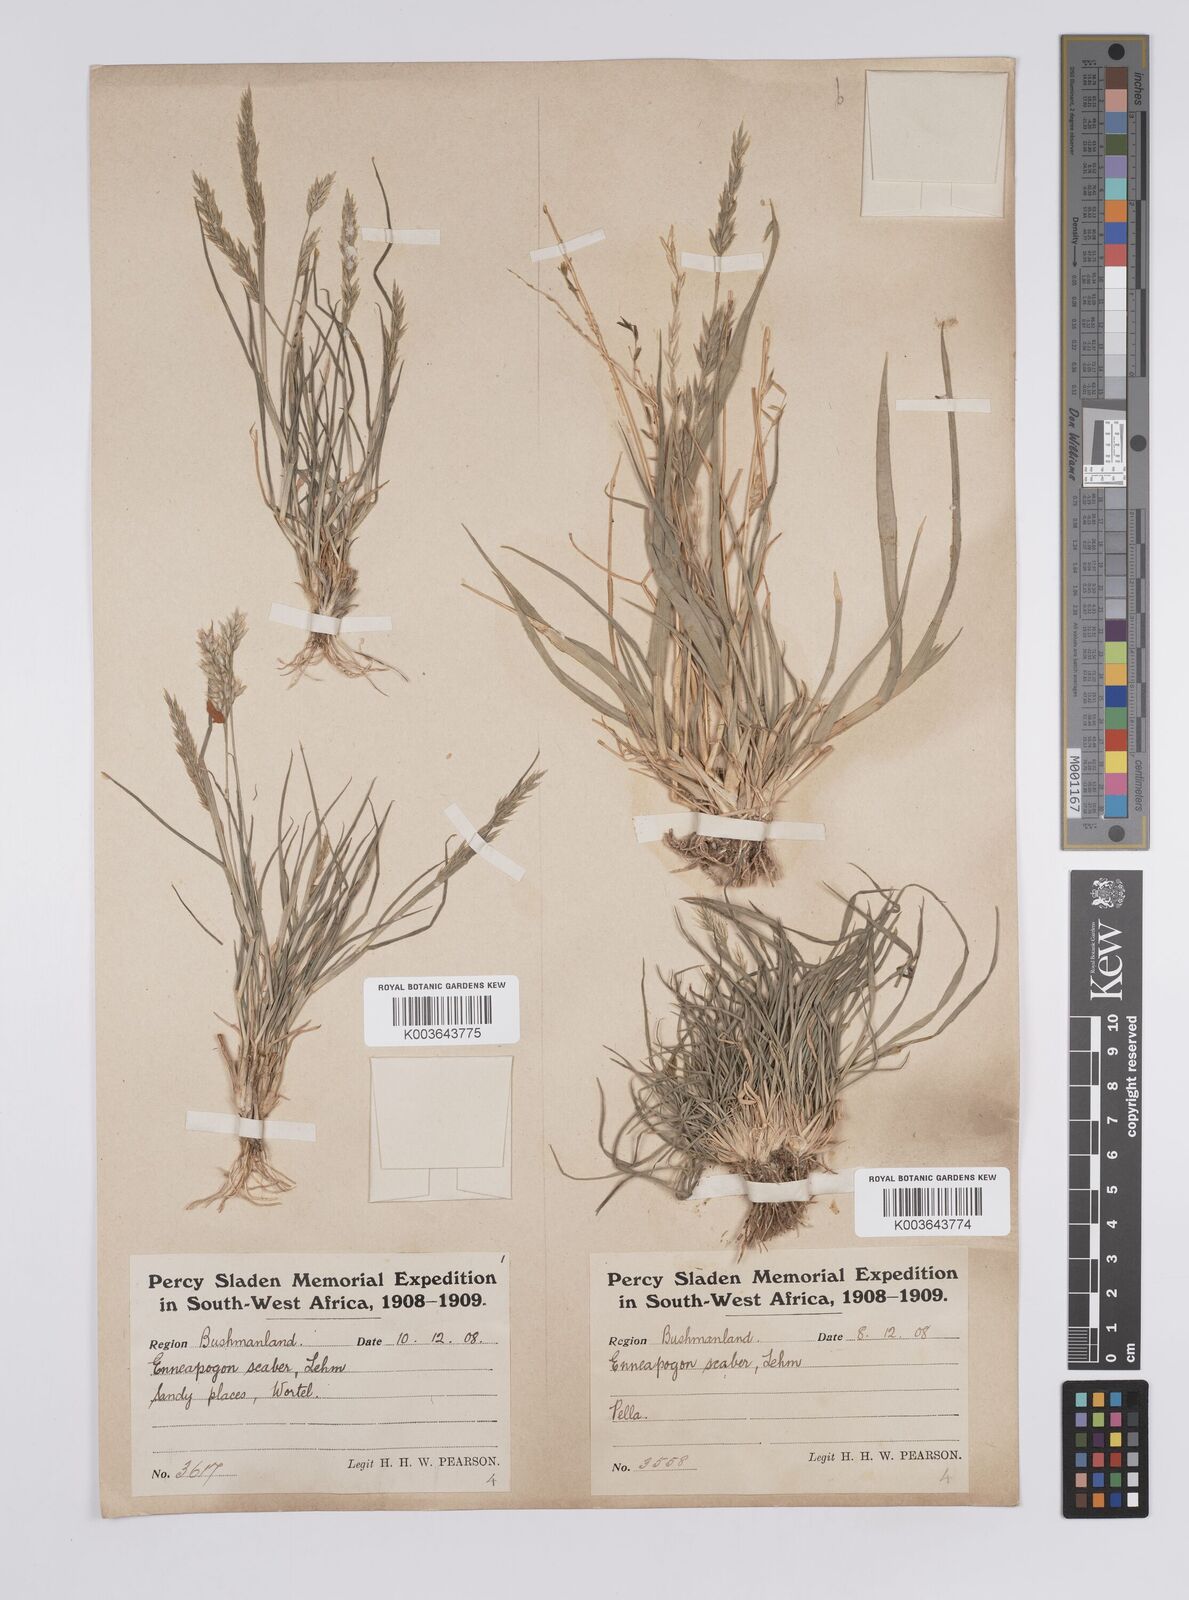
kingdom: Plantae
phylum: Tracheophyta
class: Liliopsida
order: Poales
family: Poaceae
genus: Enneapogon
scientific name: Enneapogon scaber
